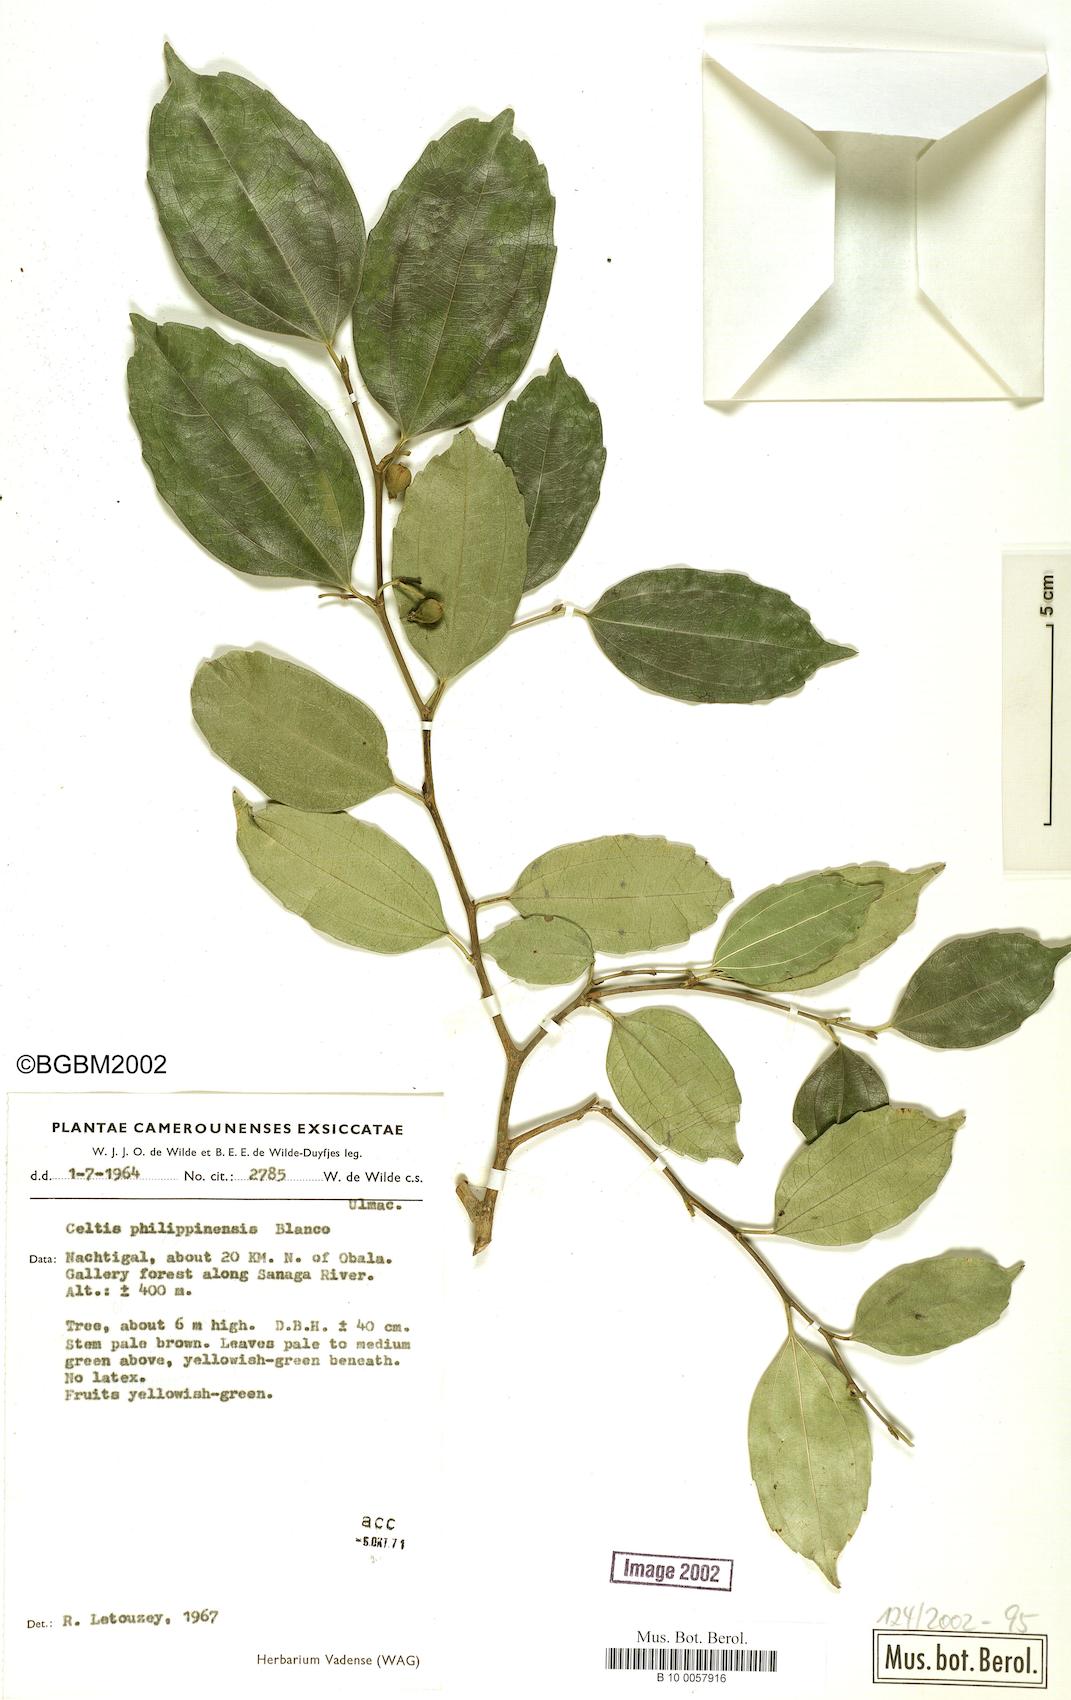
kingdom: Plantae
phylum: Tracheophyta
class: Magnoliopsida
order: Rosales
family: Cannabaceae
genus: Celtis
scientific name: Celtis philippinensis
